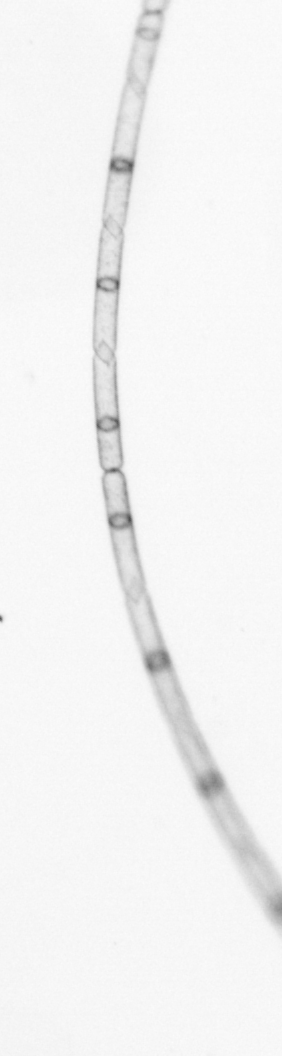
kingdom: Chromista
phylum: Ochrophyta
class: Bacillariophyceae
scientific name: Bacillariophyceae
